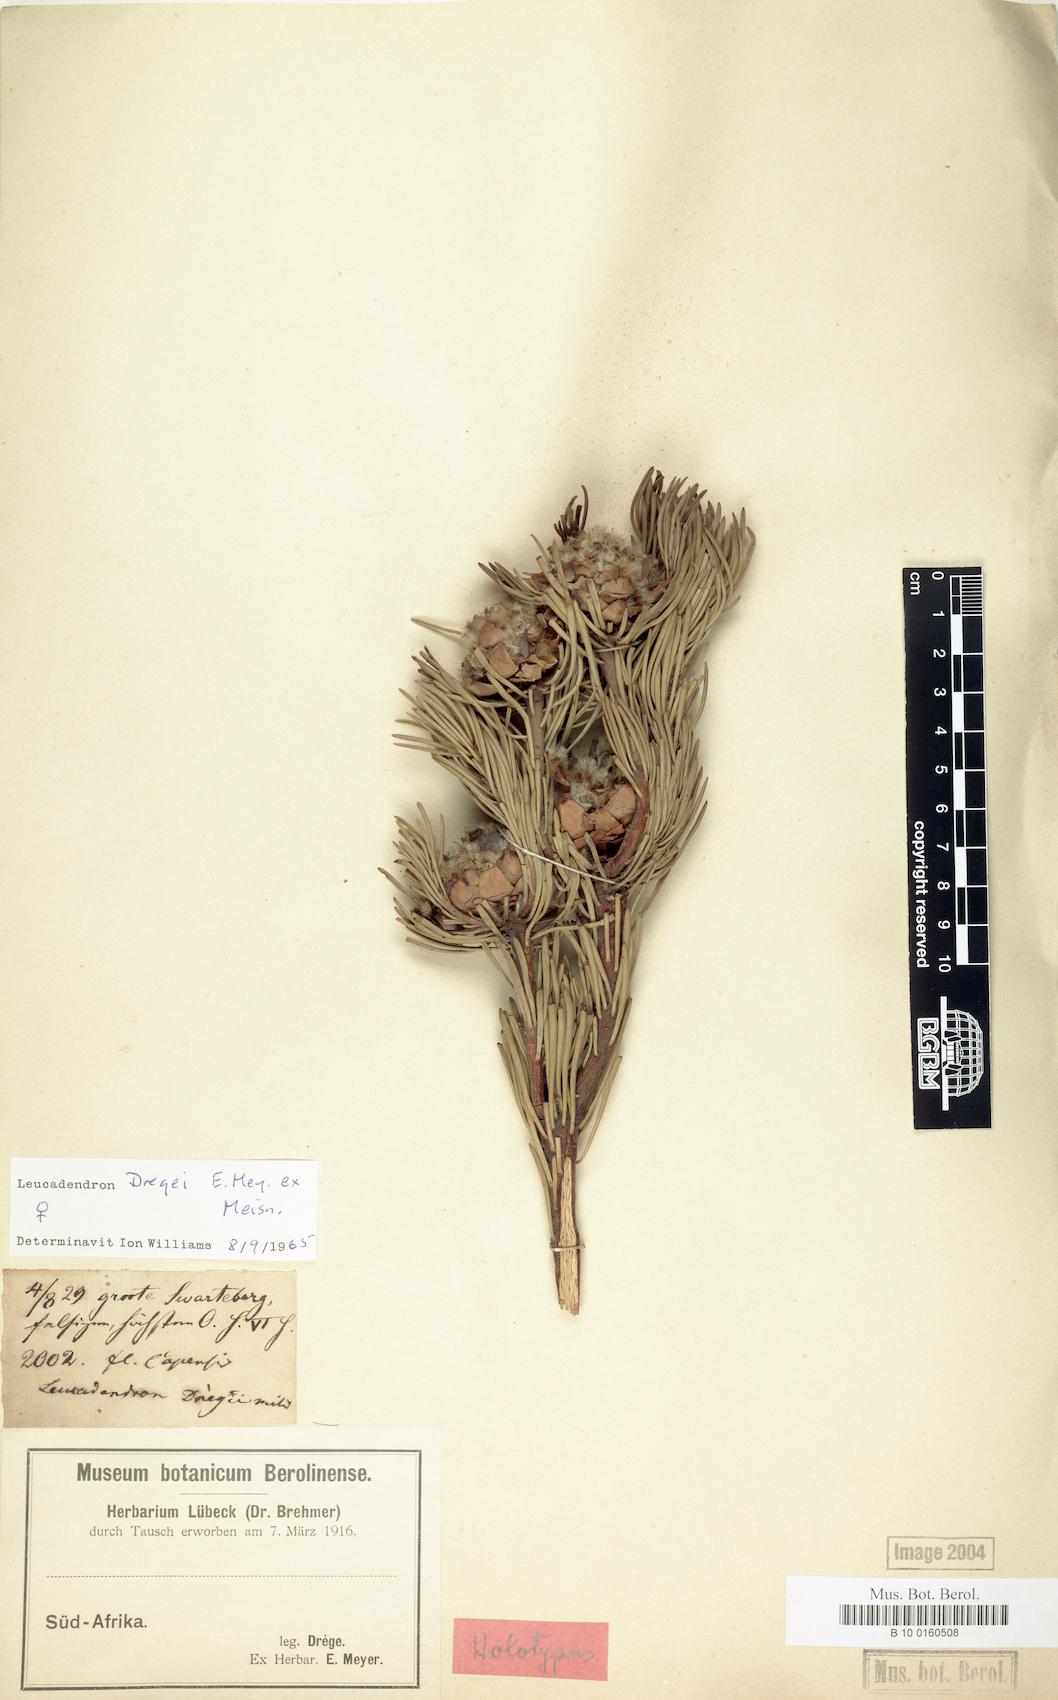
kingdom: Plantae
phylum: Tracheophyta
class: Magnoliopsida
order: Proteales
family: Proteaceae
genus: Leucadendron
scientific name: Leucadendron dregei
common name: Summit conebush
